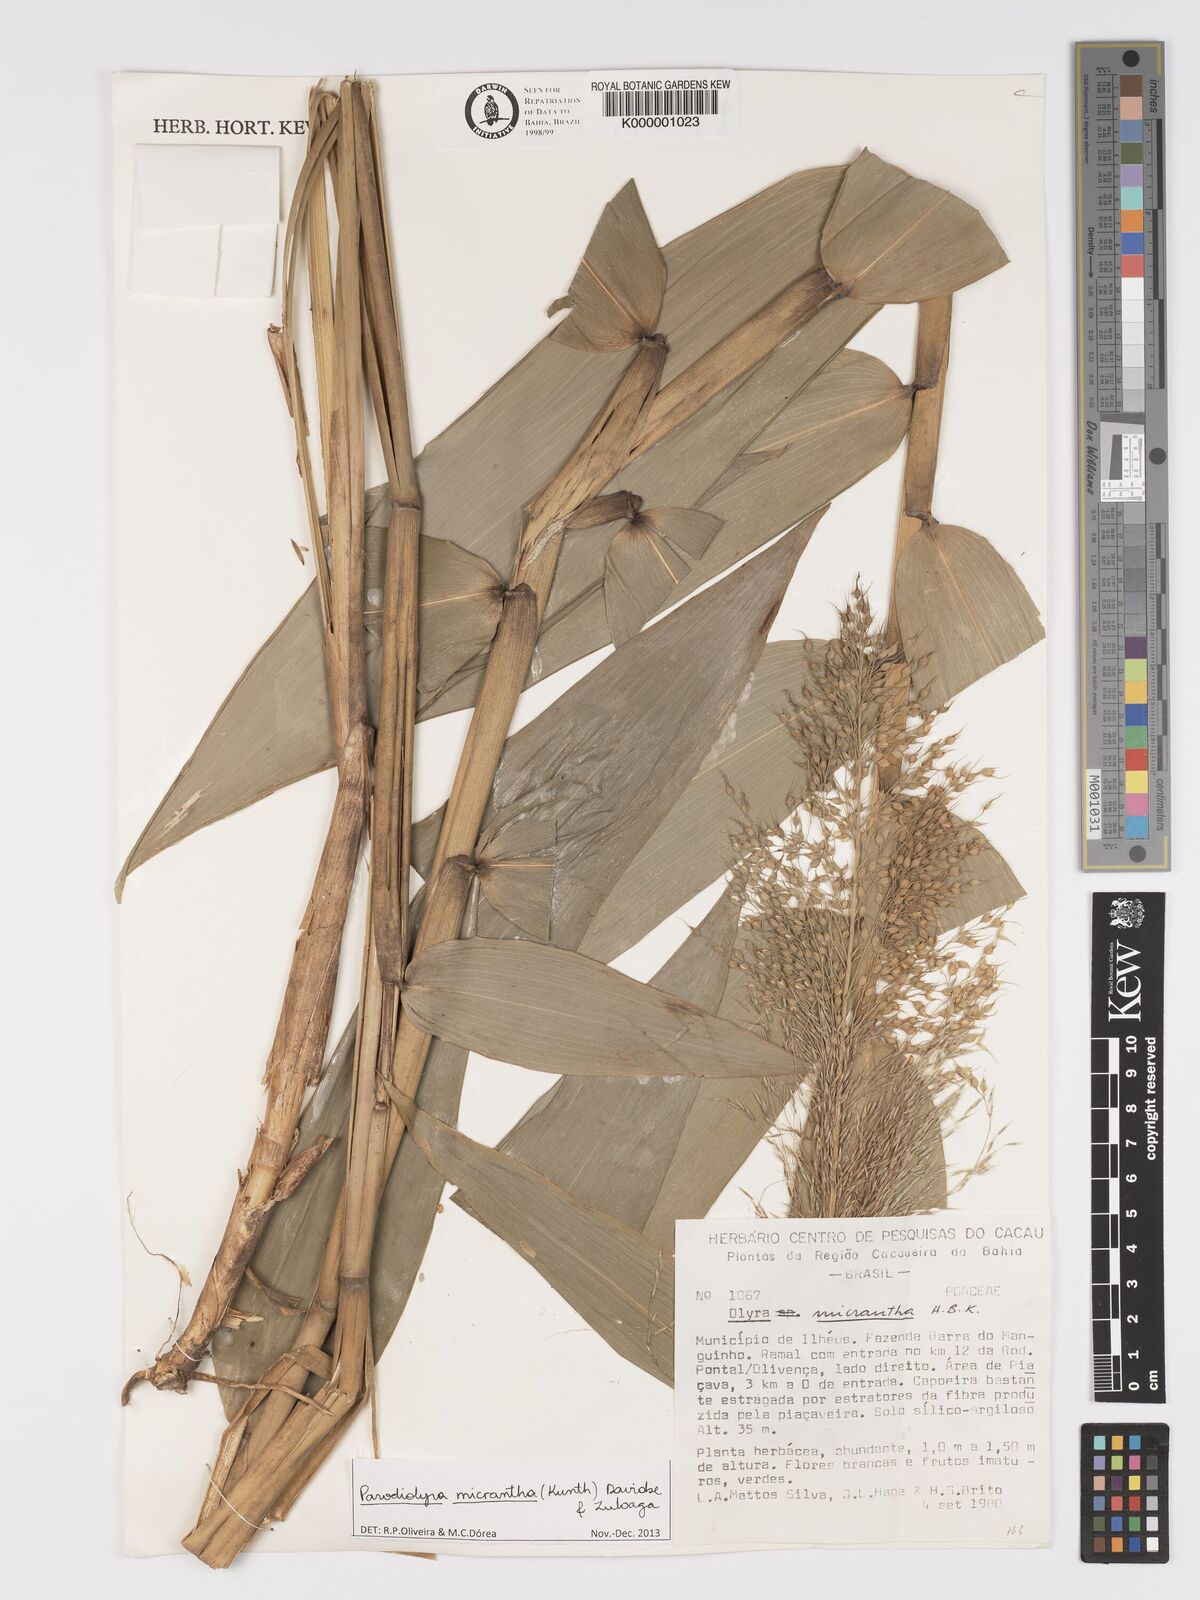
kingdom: Plantae
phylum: Tracheophyta
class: Liliopsida
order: Poales
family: Poaceae
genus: Taquara
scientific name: Taquara micrantha
